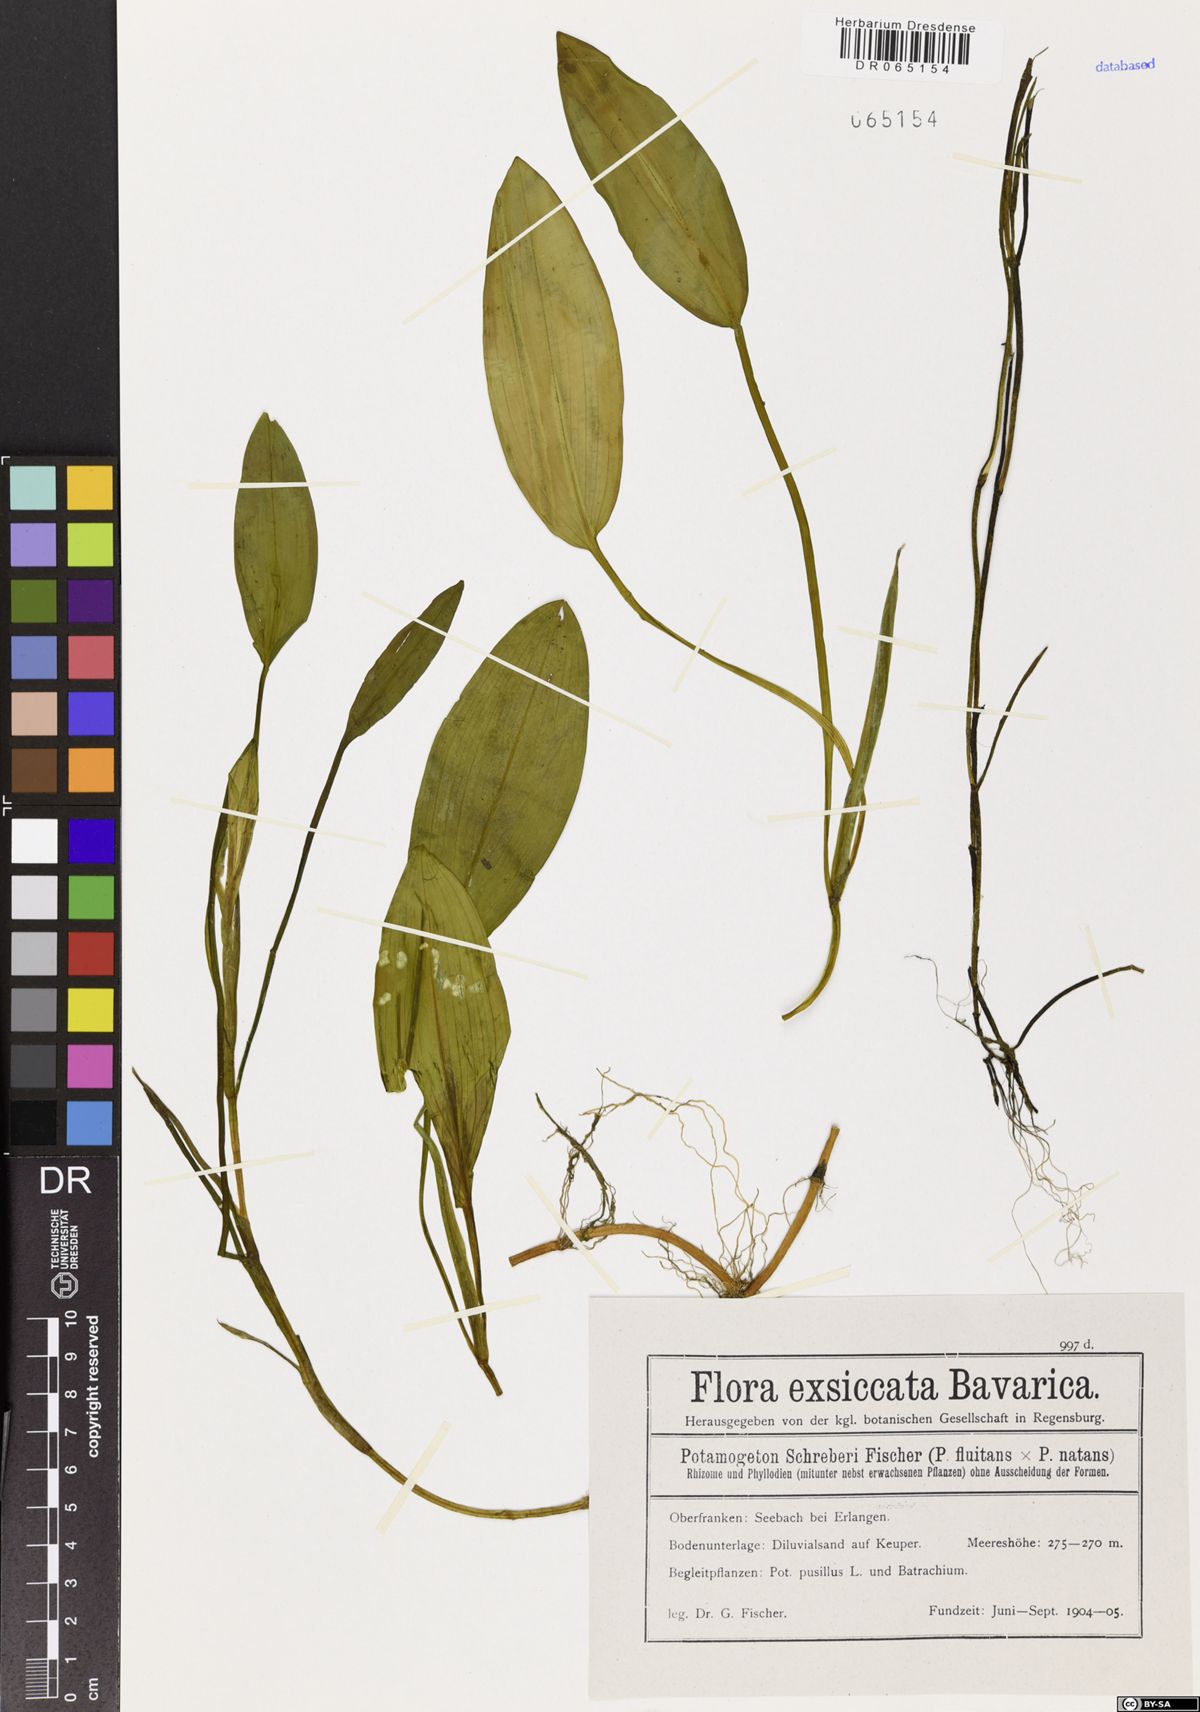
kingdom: Plantae
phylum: Tracheophyta
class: Liliopsida
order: Alismatales
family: Potamogetonaceae
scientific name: Potamogetonaceae
